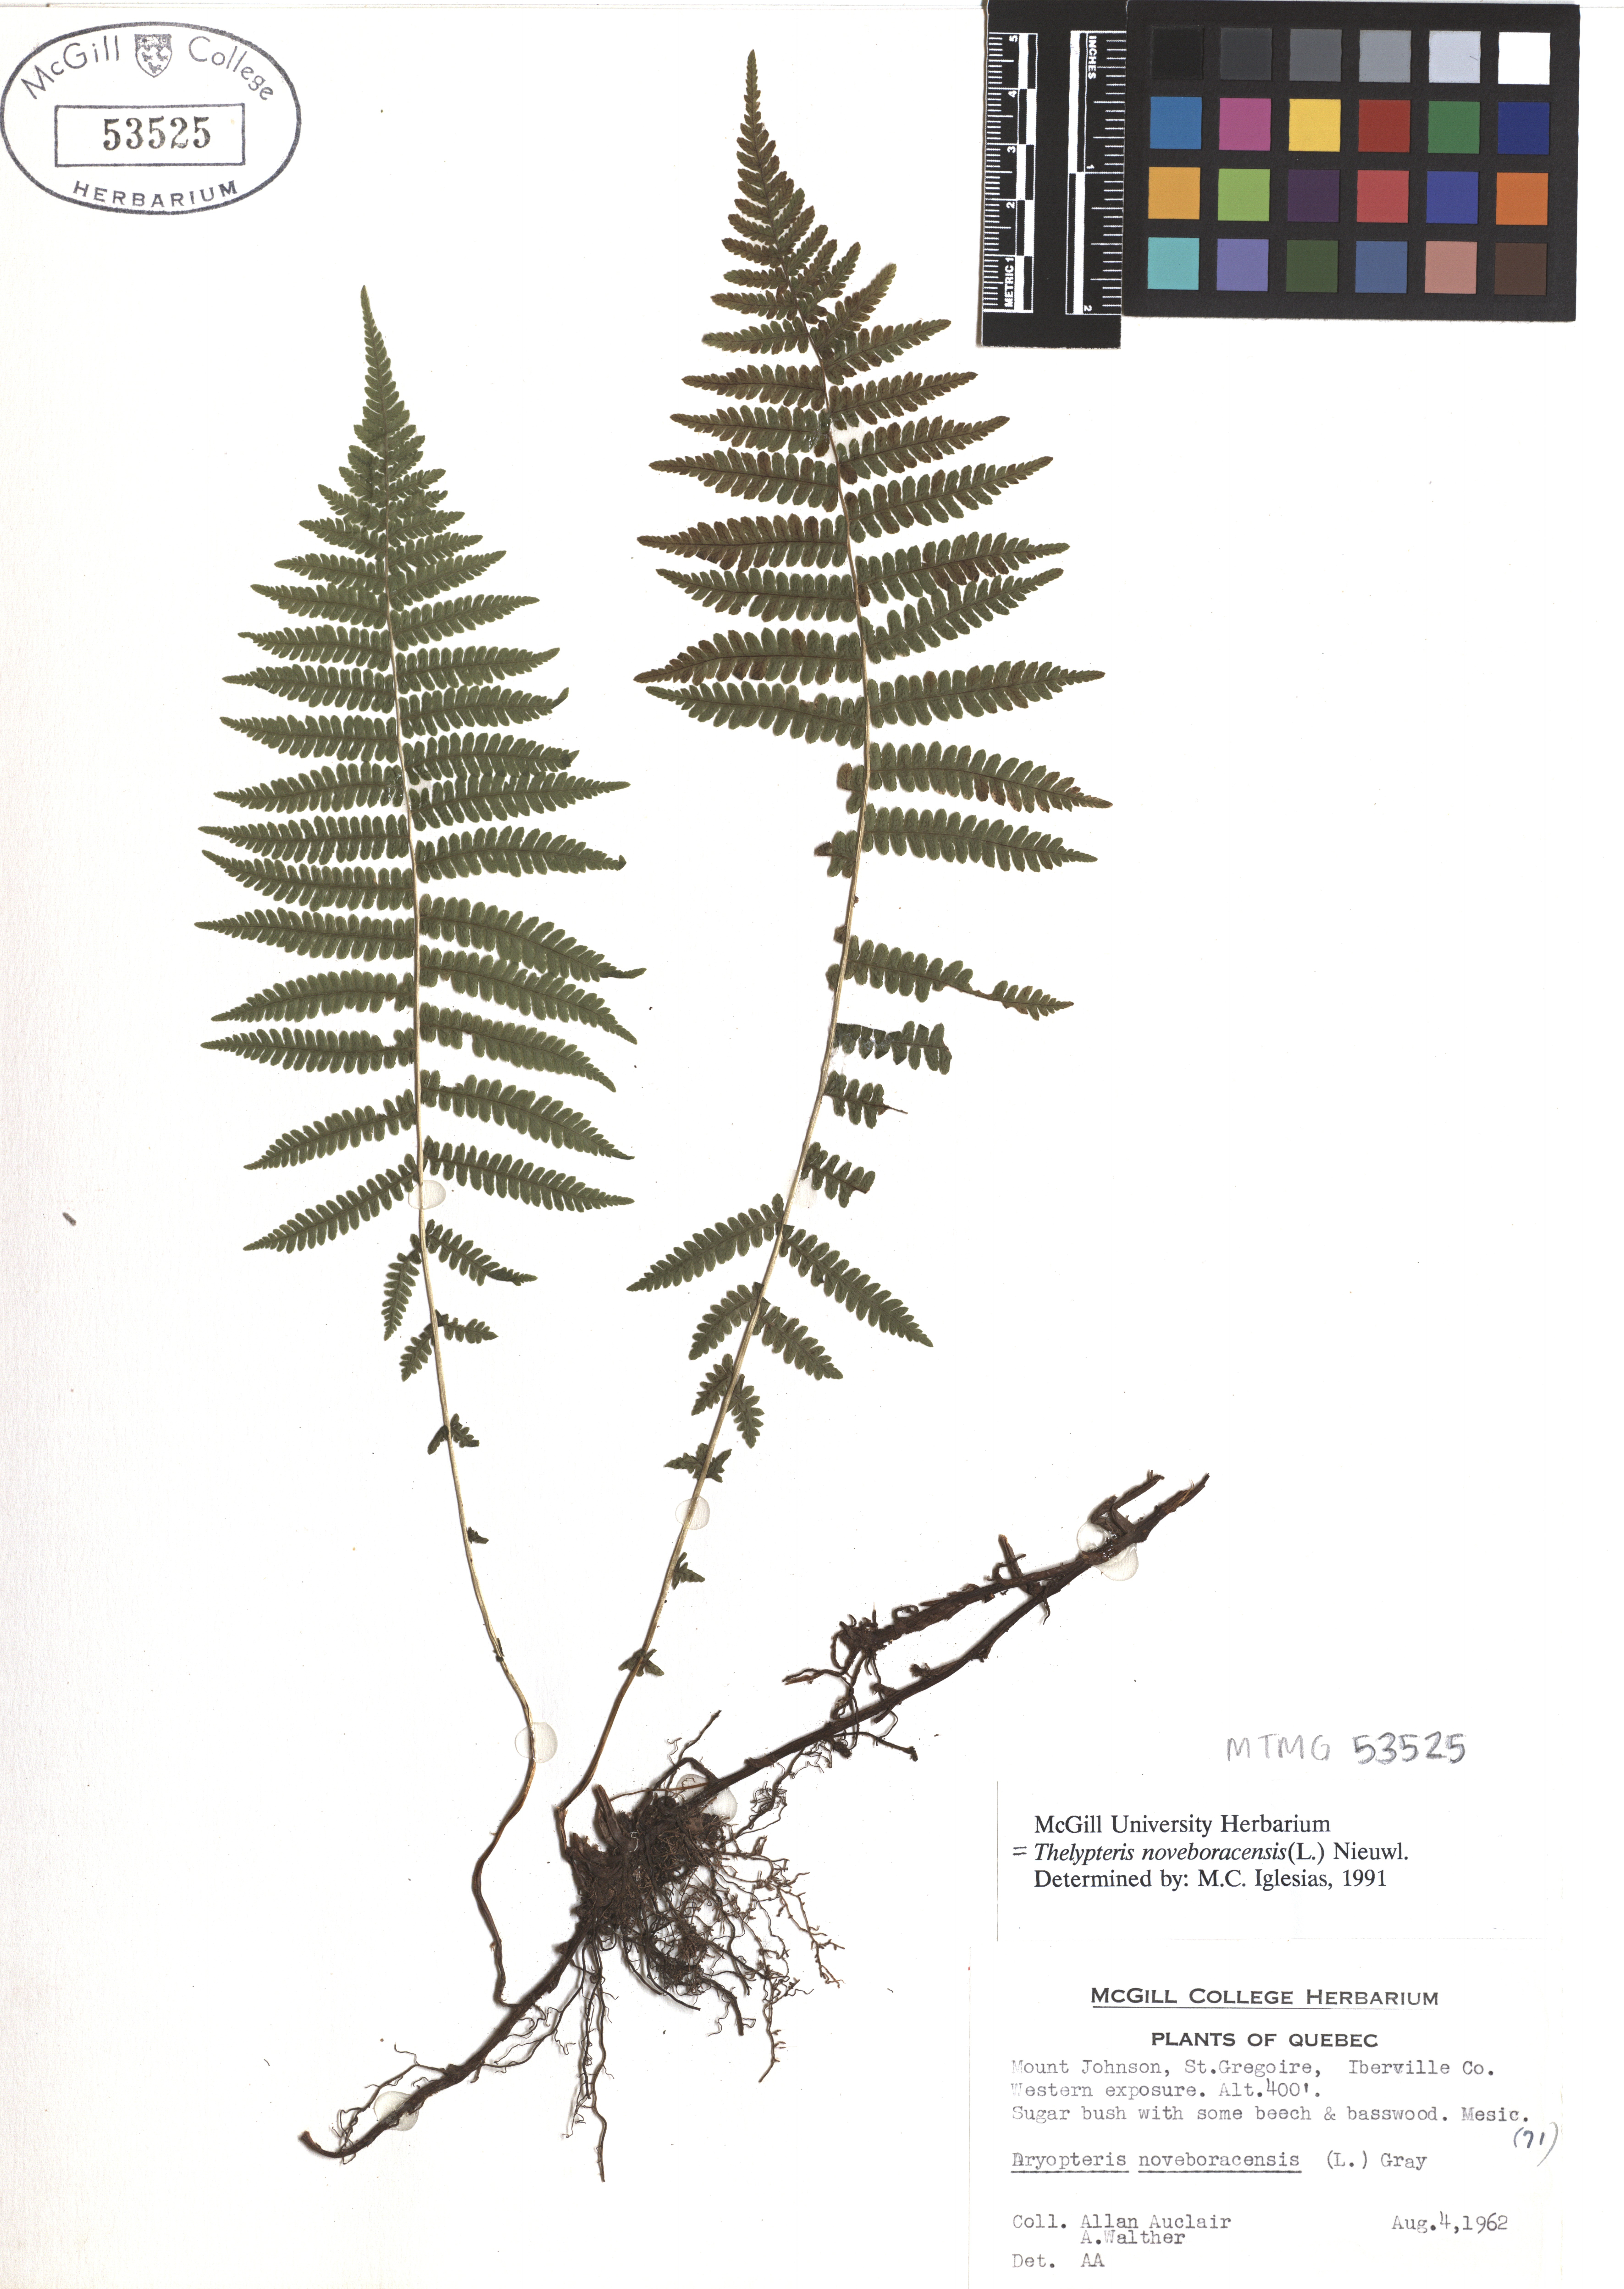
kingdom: Plantae
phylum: Tracheophyta
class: Polypodiopsida
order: Polypodiales
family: Thelypteridaceae
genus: Amauropelta
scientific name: Amauropelta noveboracensis
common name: New york fern
